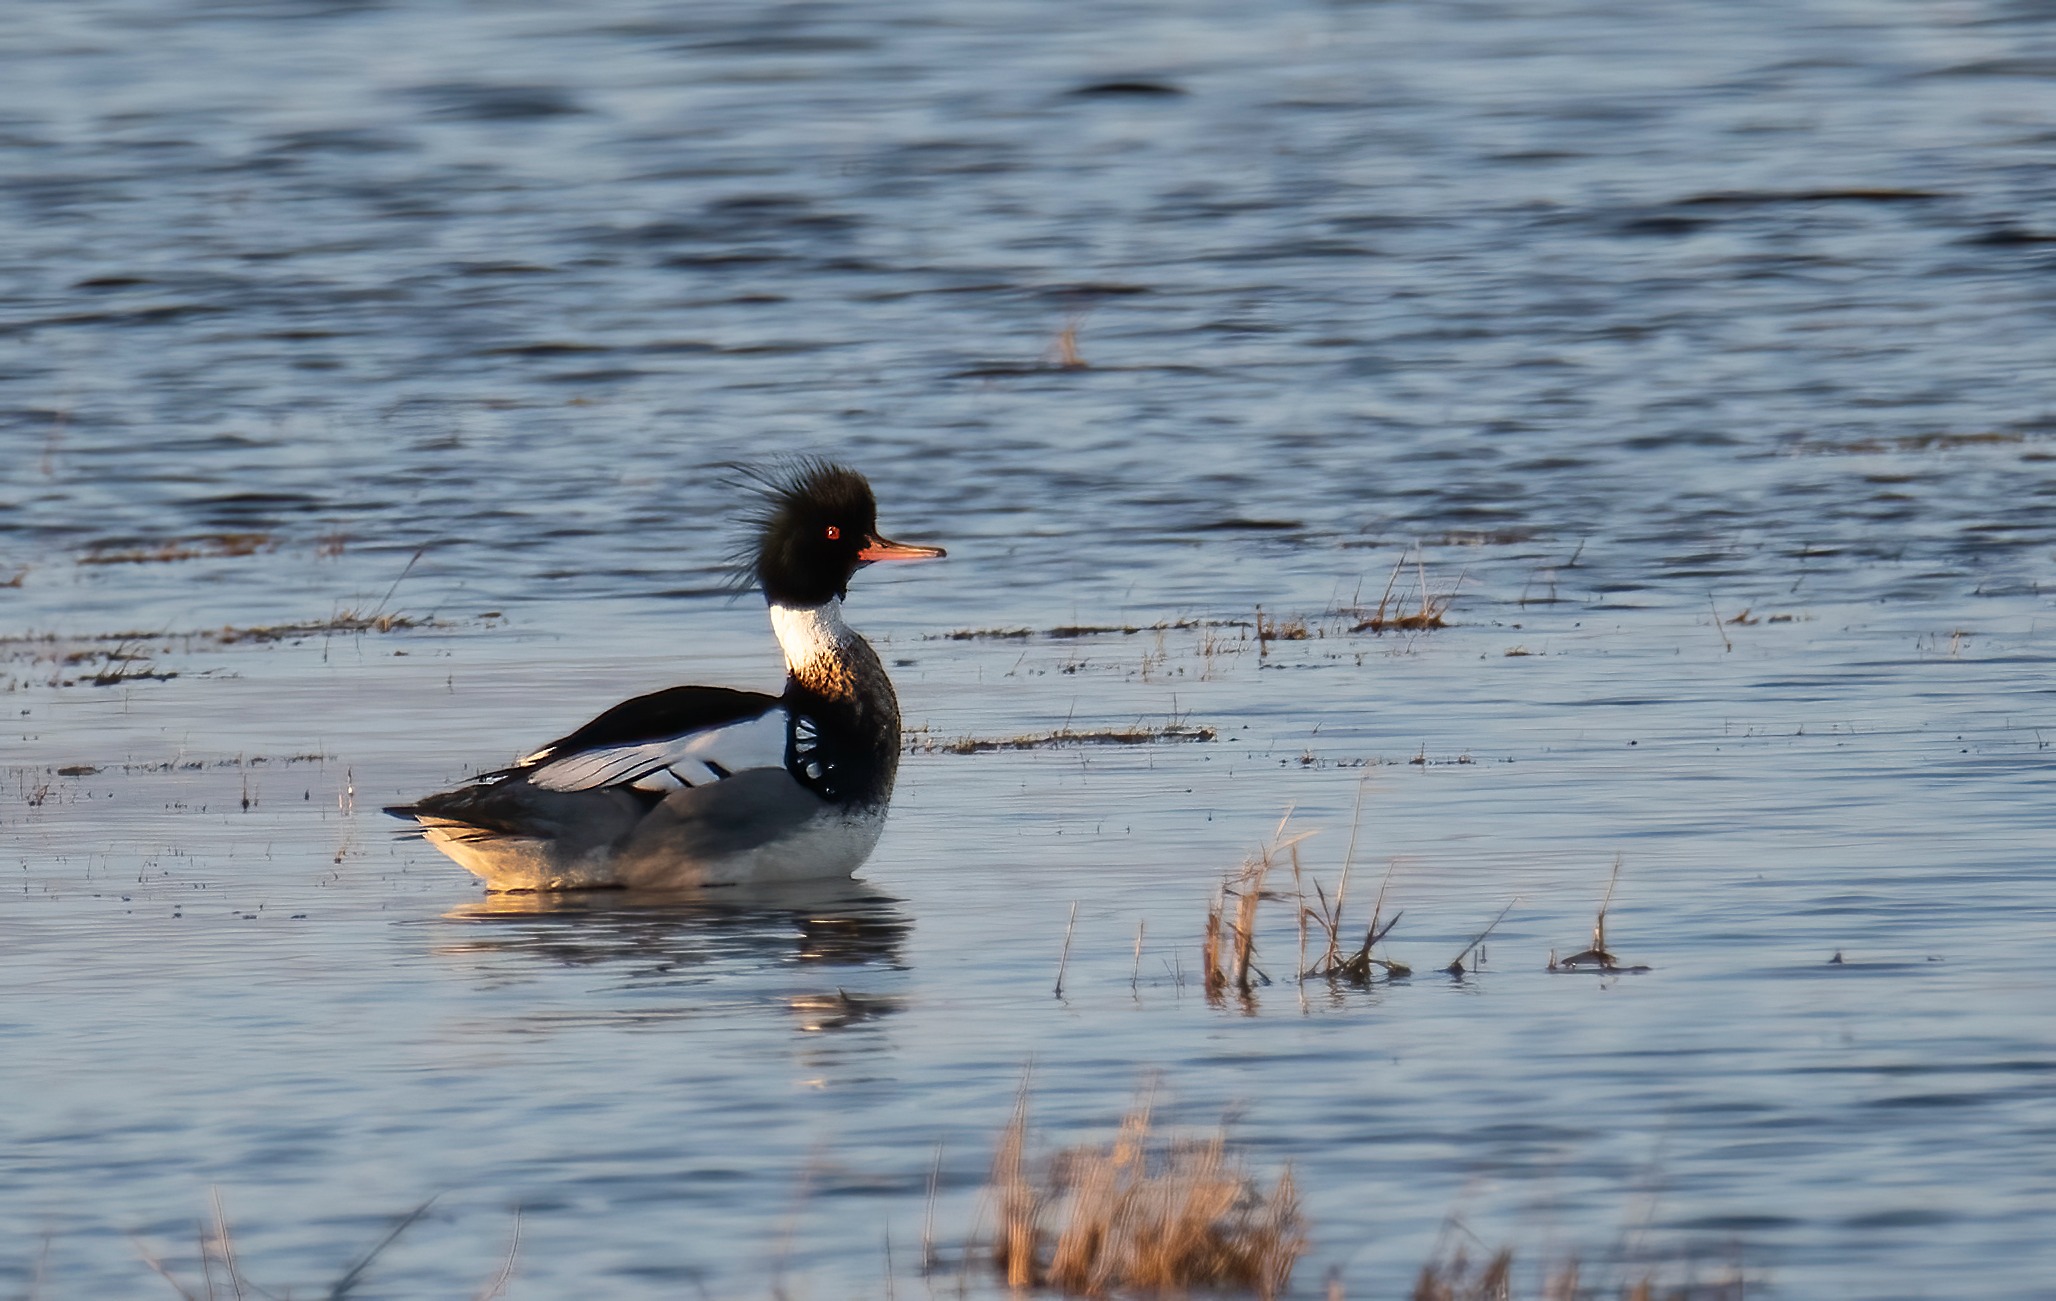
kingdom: Animalia
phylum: Chordata
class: Aves
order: Anseriformes
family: Anatidae
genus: Mergus
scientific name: Mergus serrator
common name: Toppet skallesluger
